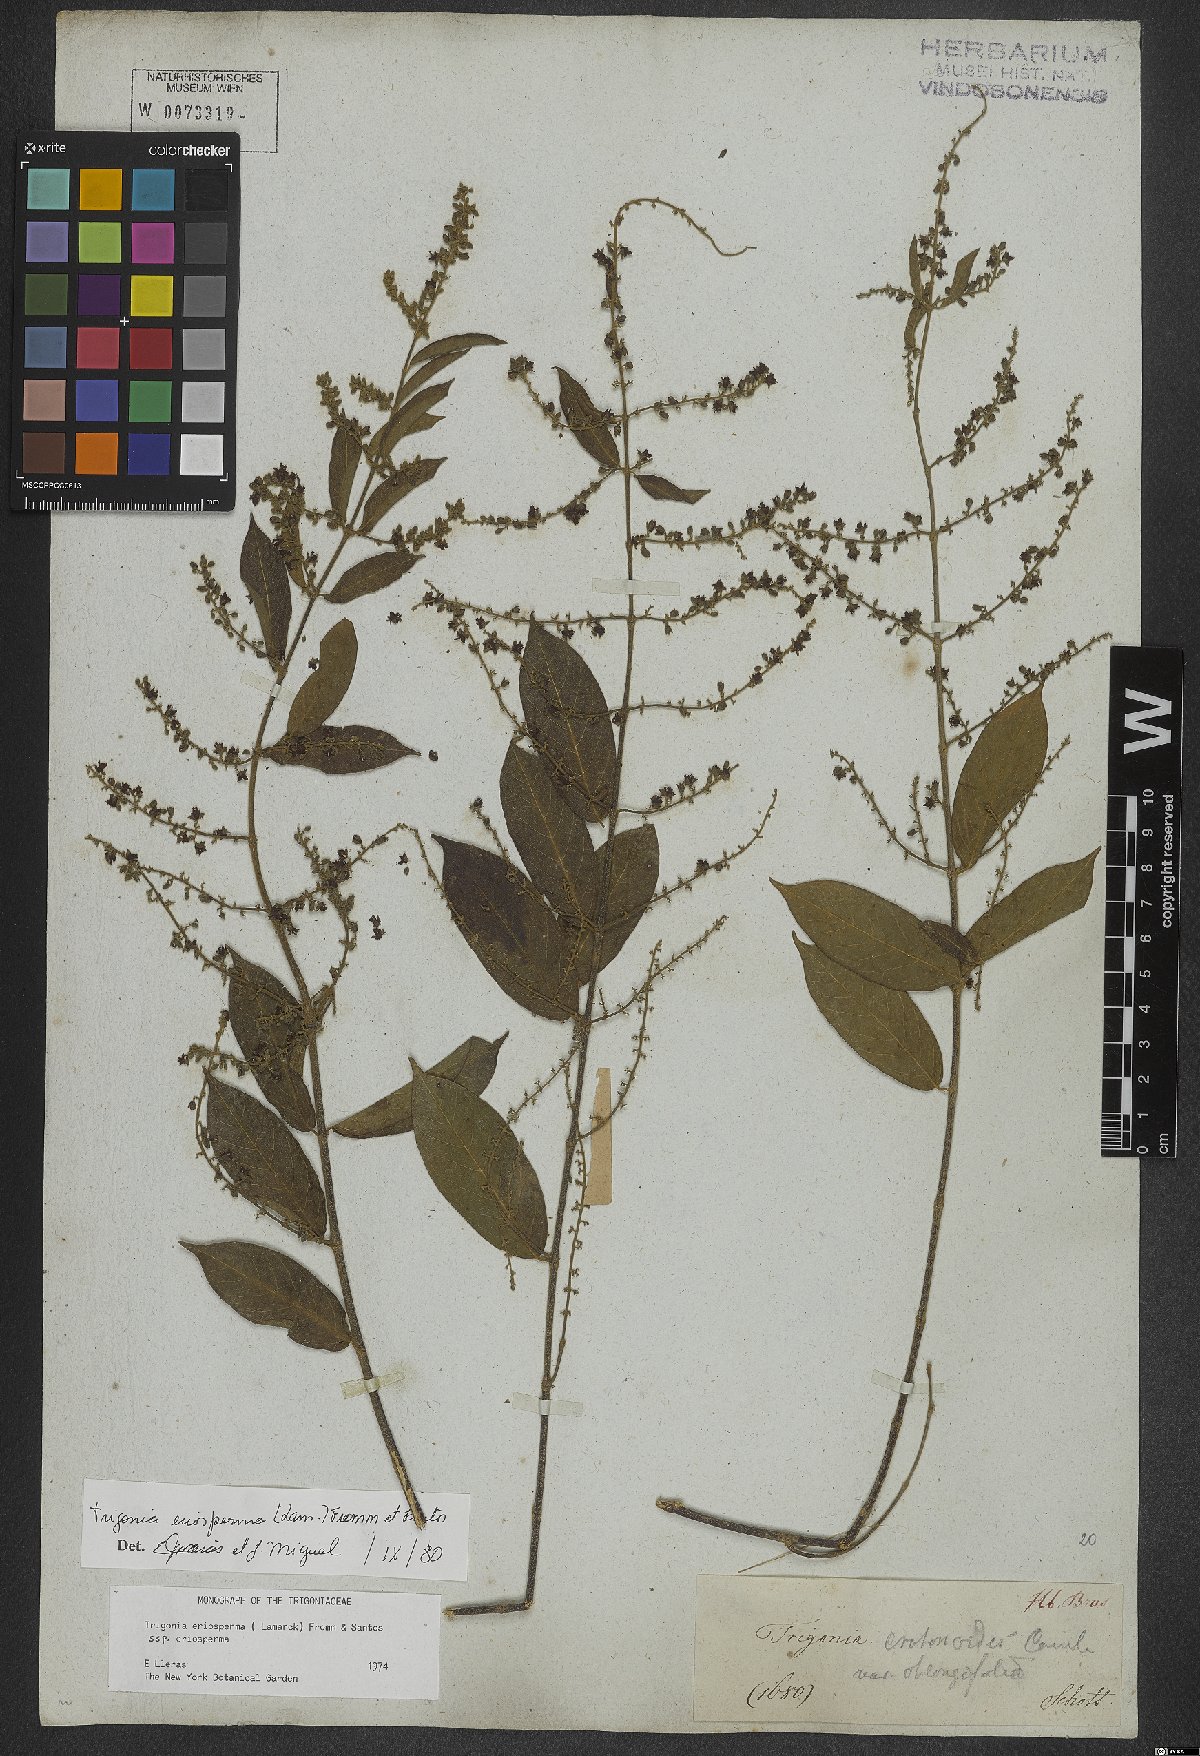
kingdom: Plantae
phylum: Tracheophyta
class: Magnoliopsida
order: Malpighiales
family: Trigoniaceae
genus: Trigonia
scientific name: Trigonia eriosperma
